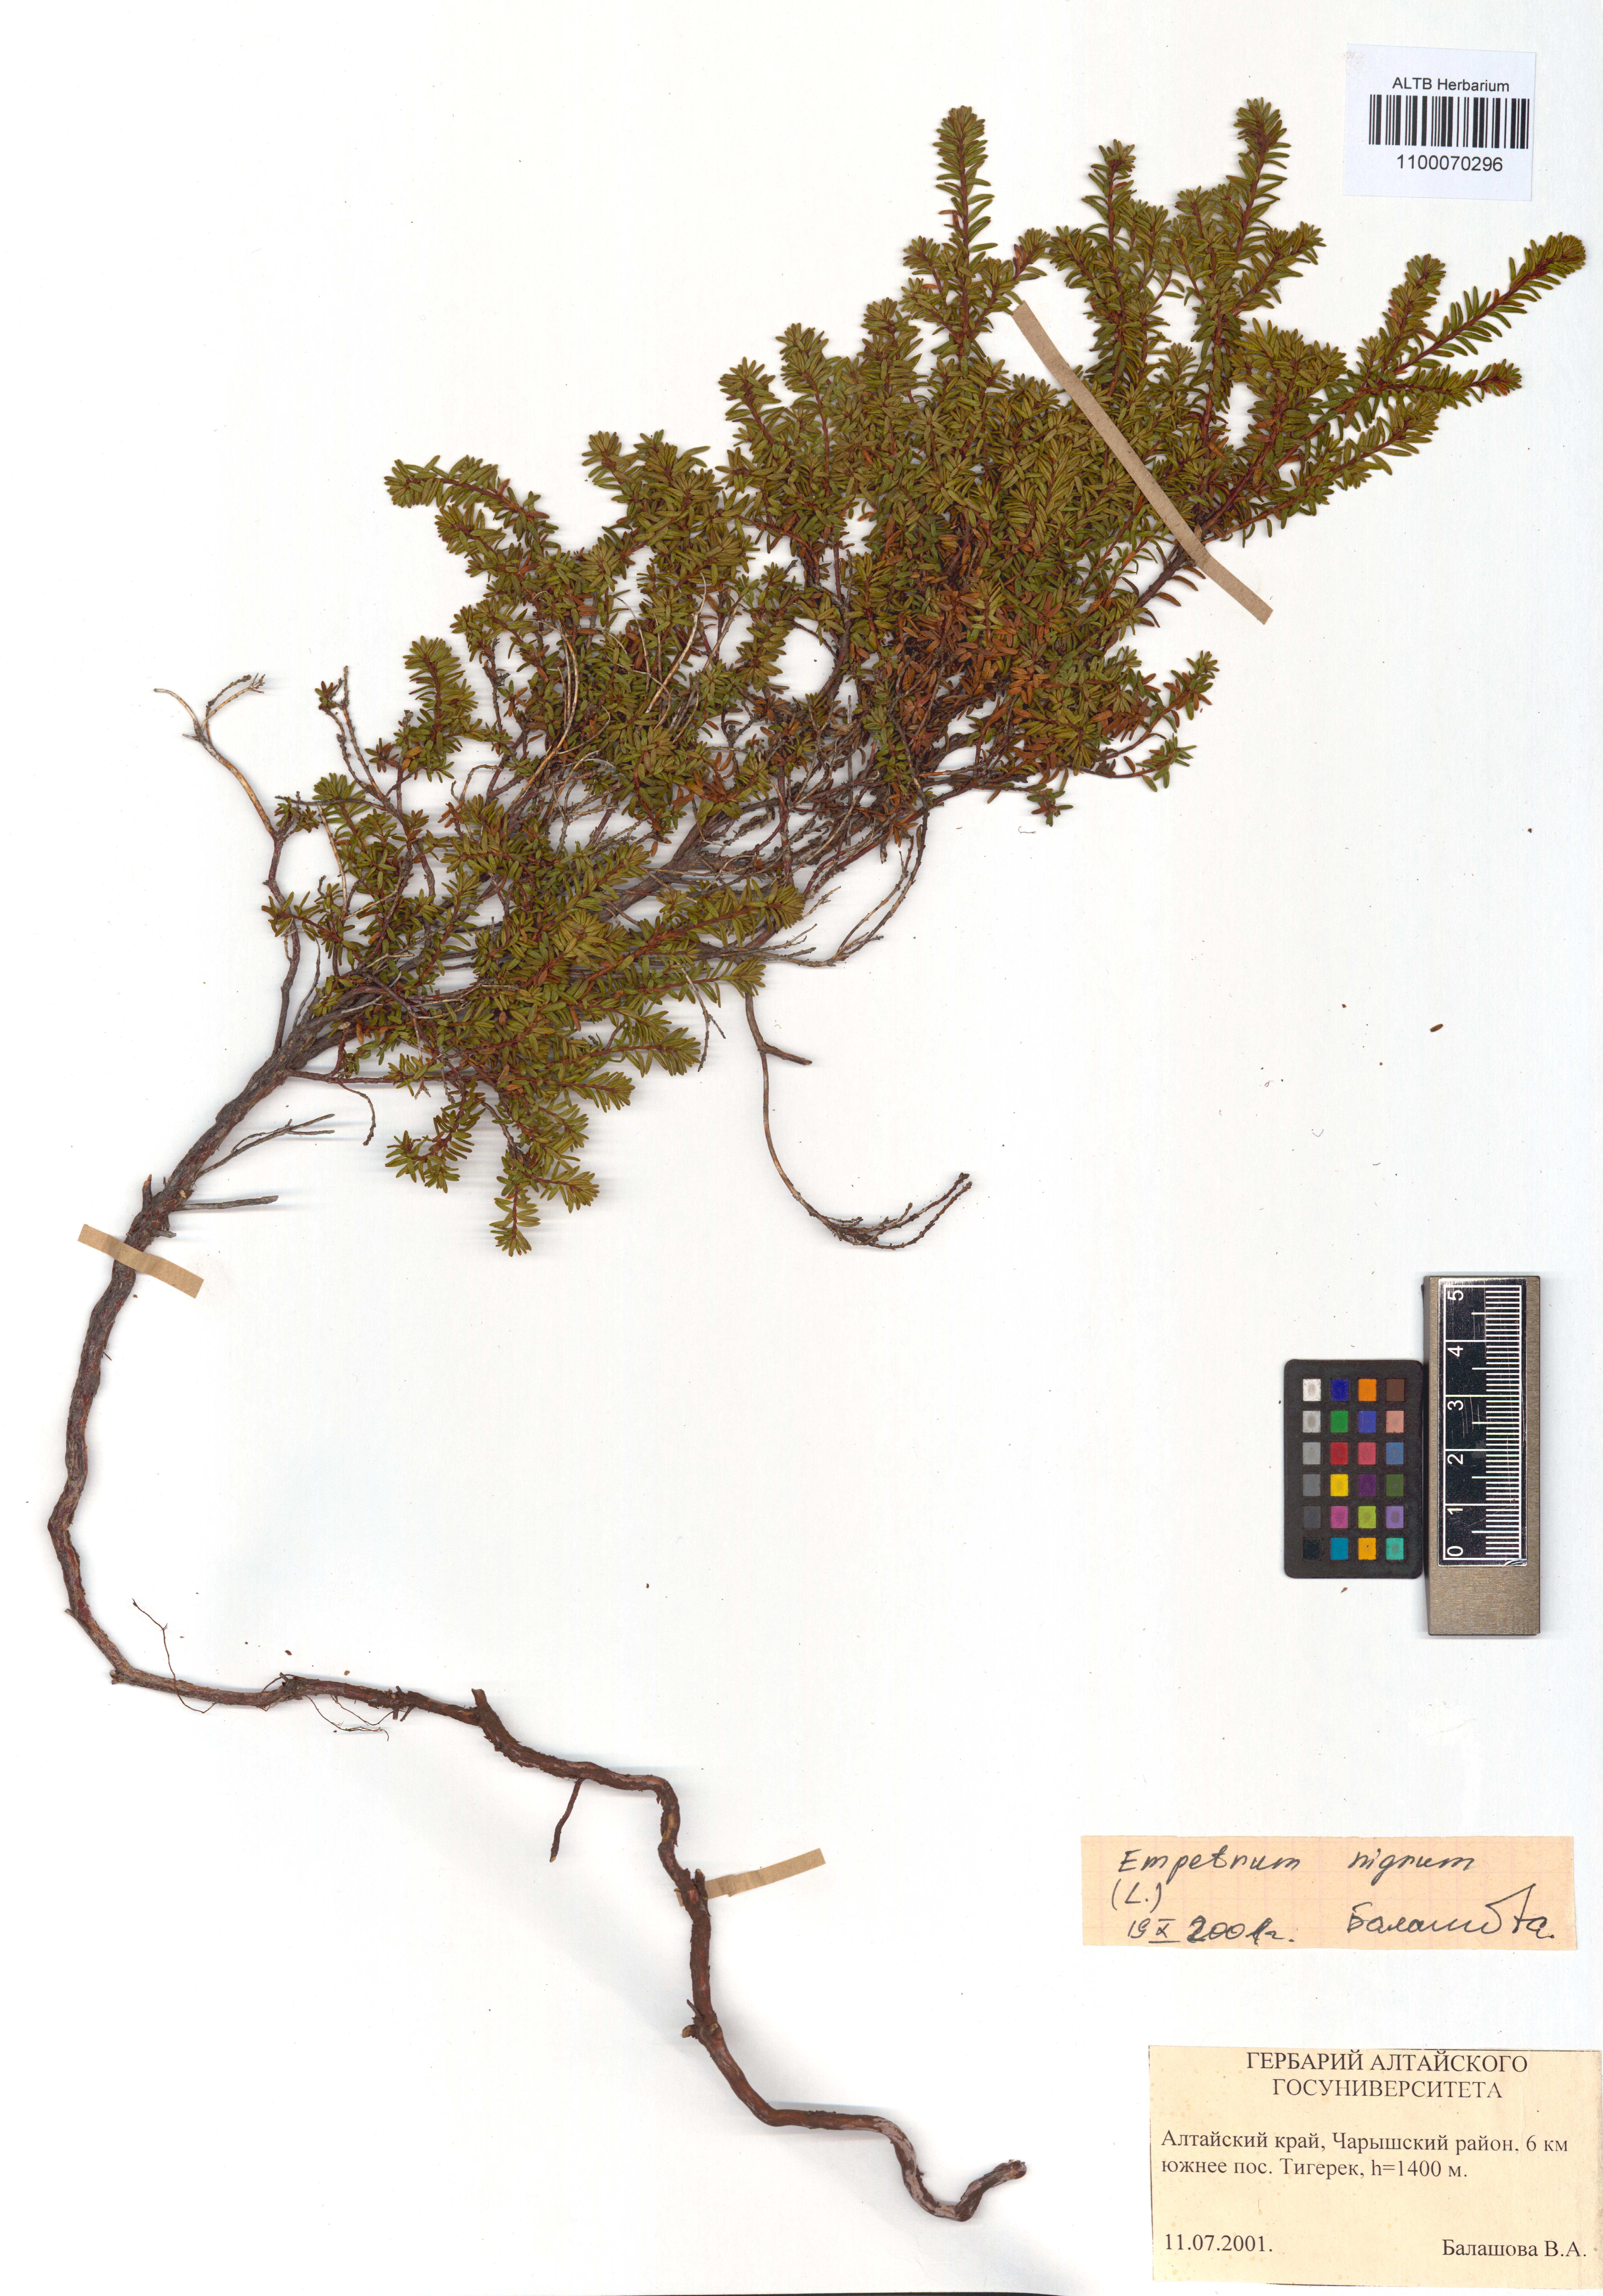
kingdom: Plantae
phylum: Tracheophyta
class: Magnoliopsida
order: Ericales
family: Ericaceae
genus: Empetrum
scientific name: Empetrum nigrum
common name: Black crowberry
